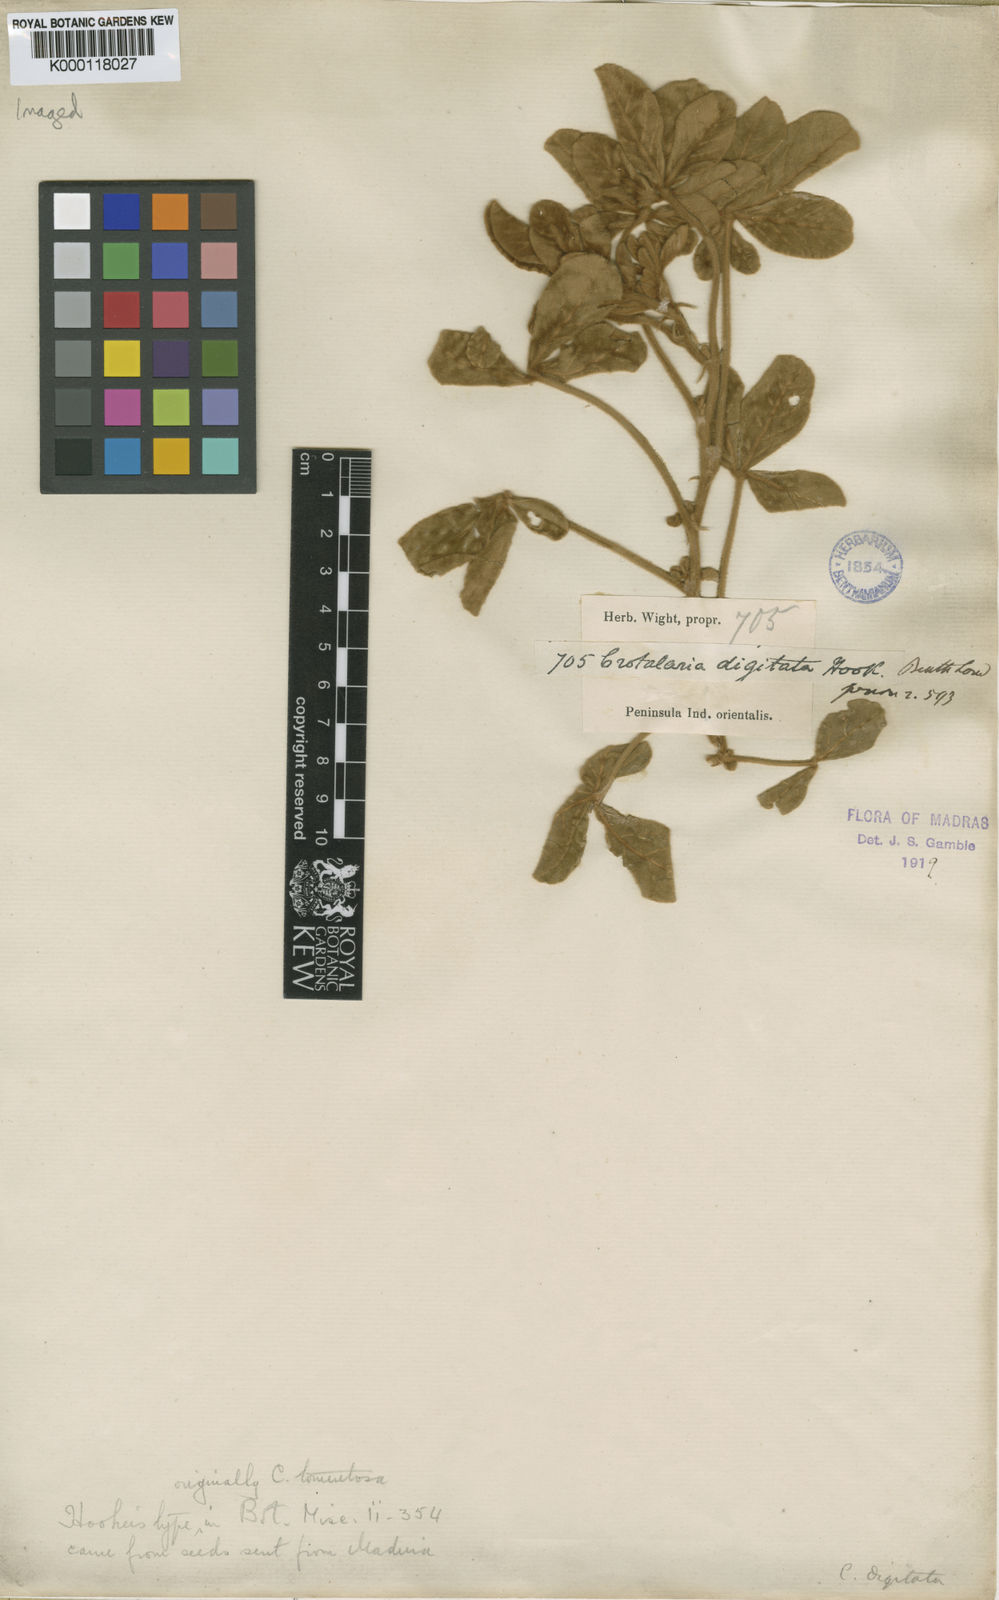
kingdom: Plantae
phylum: Tracheophyta
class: Magnoliopsida
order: Fabales
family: Fabaceae
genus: Crotalaria
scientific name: Crotalaria digitata
